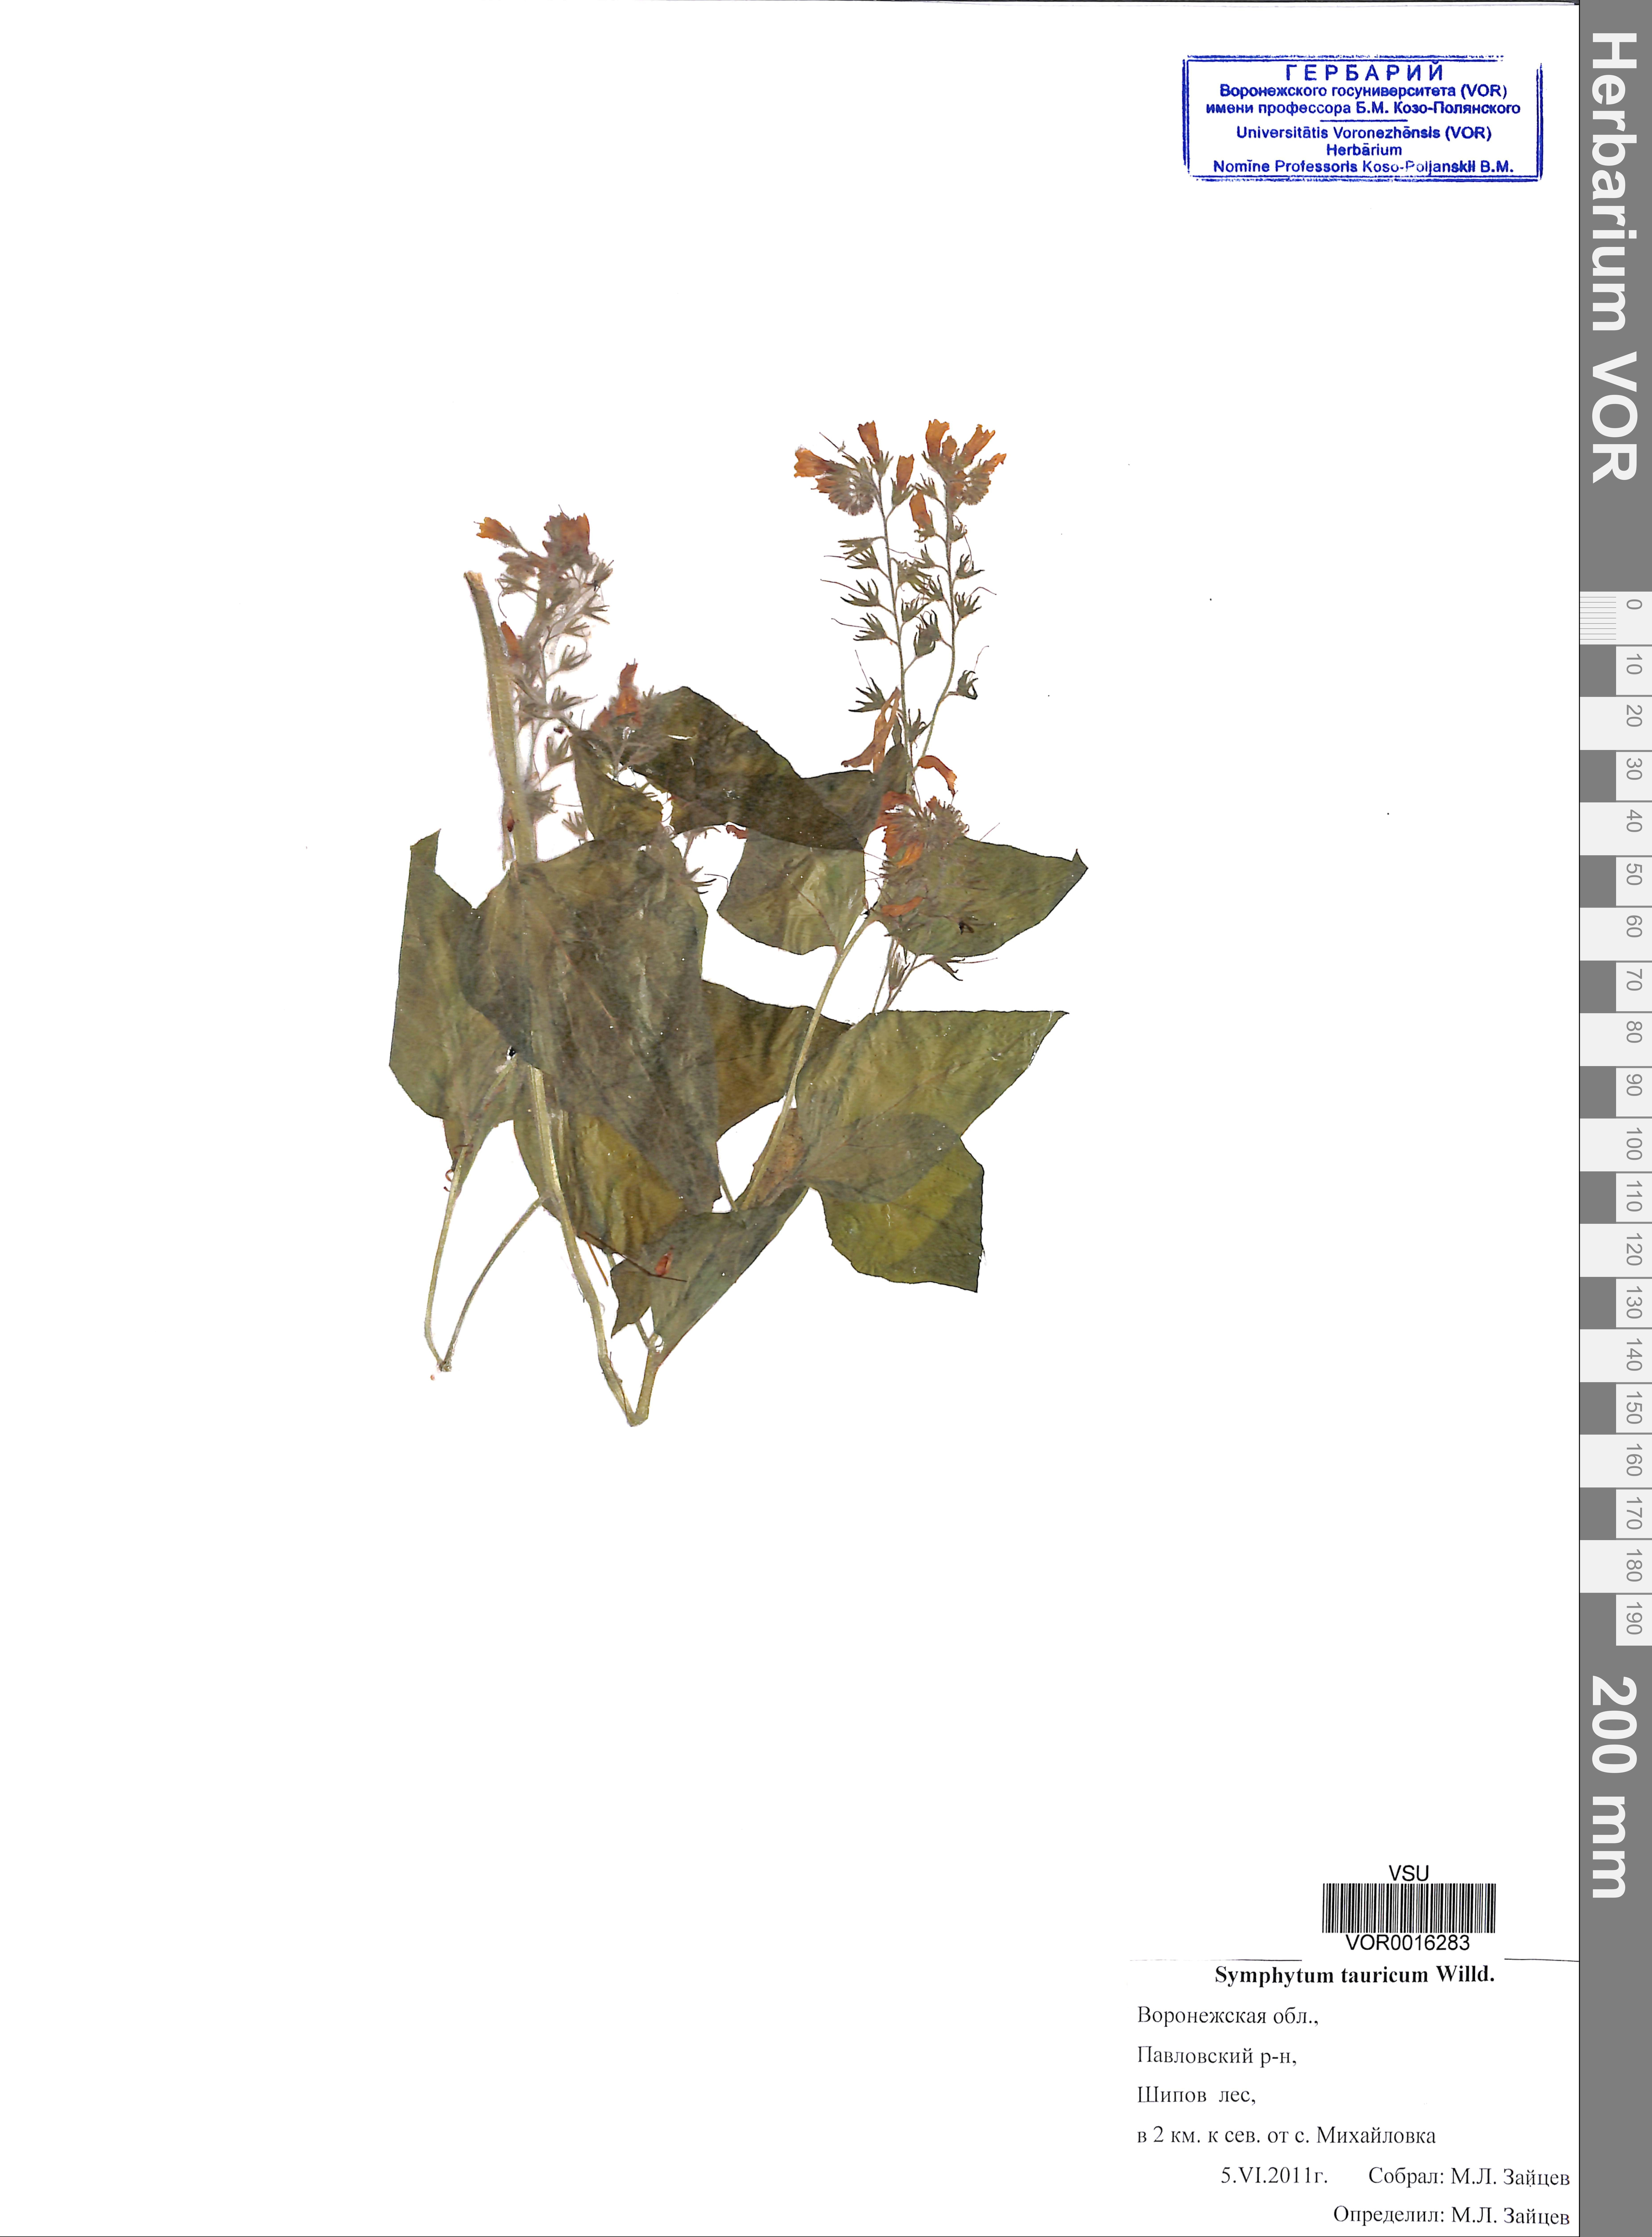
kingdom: Plantae
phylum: Tracheophyta
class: Magnoliopsida
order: Boraginales
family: Boraginaceae
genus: Symphytum
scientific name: Symphytum tauricum
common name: Crimean comfrey
